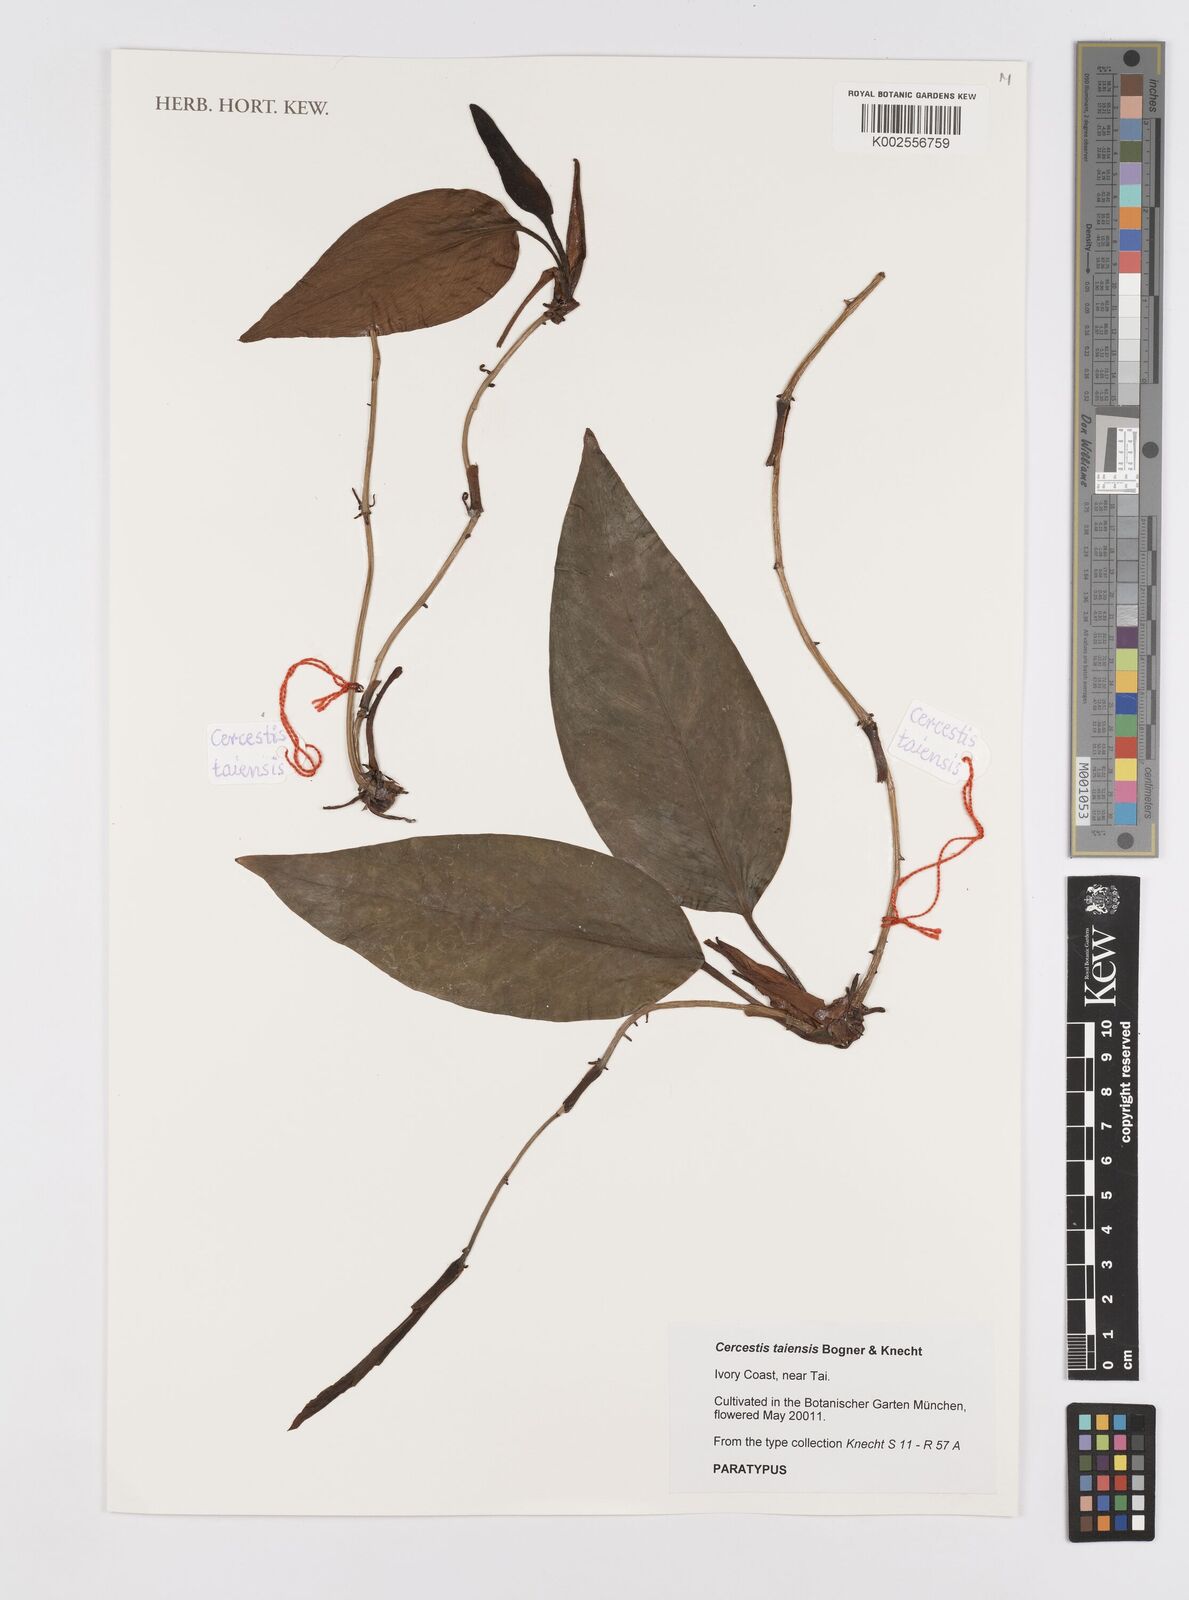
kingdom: Plantae
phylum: Tracheophyta
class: Liliopsida
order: Alismatales
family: Araceae
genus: Cercestis
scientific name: Cercestis taiensis
